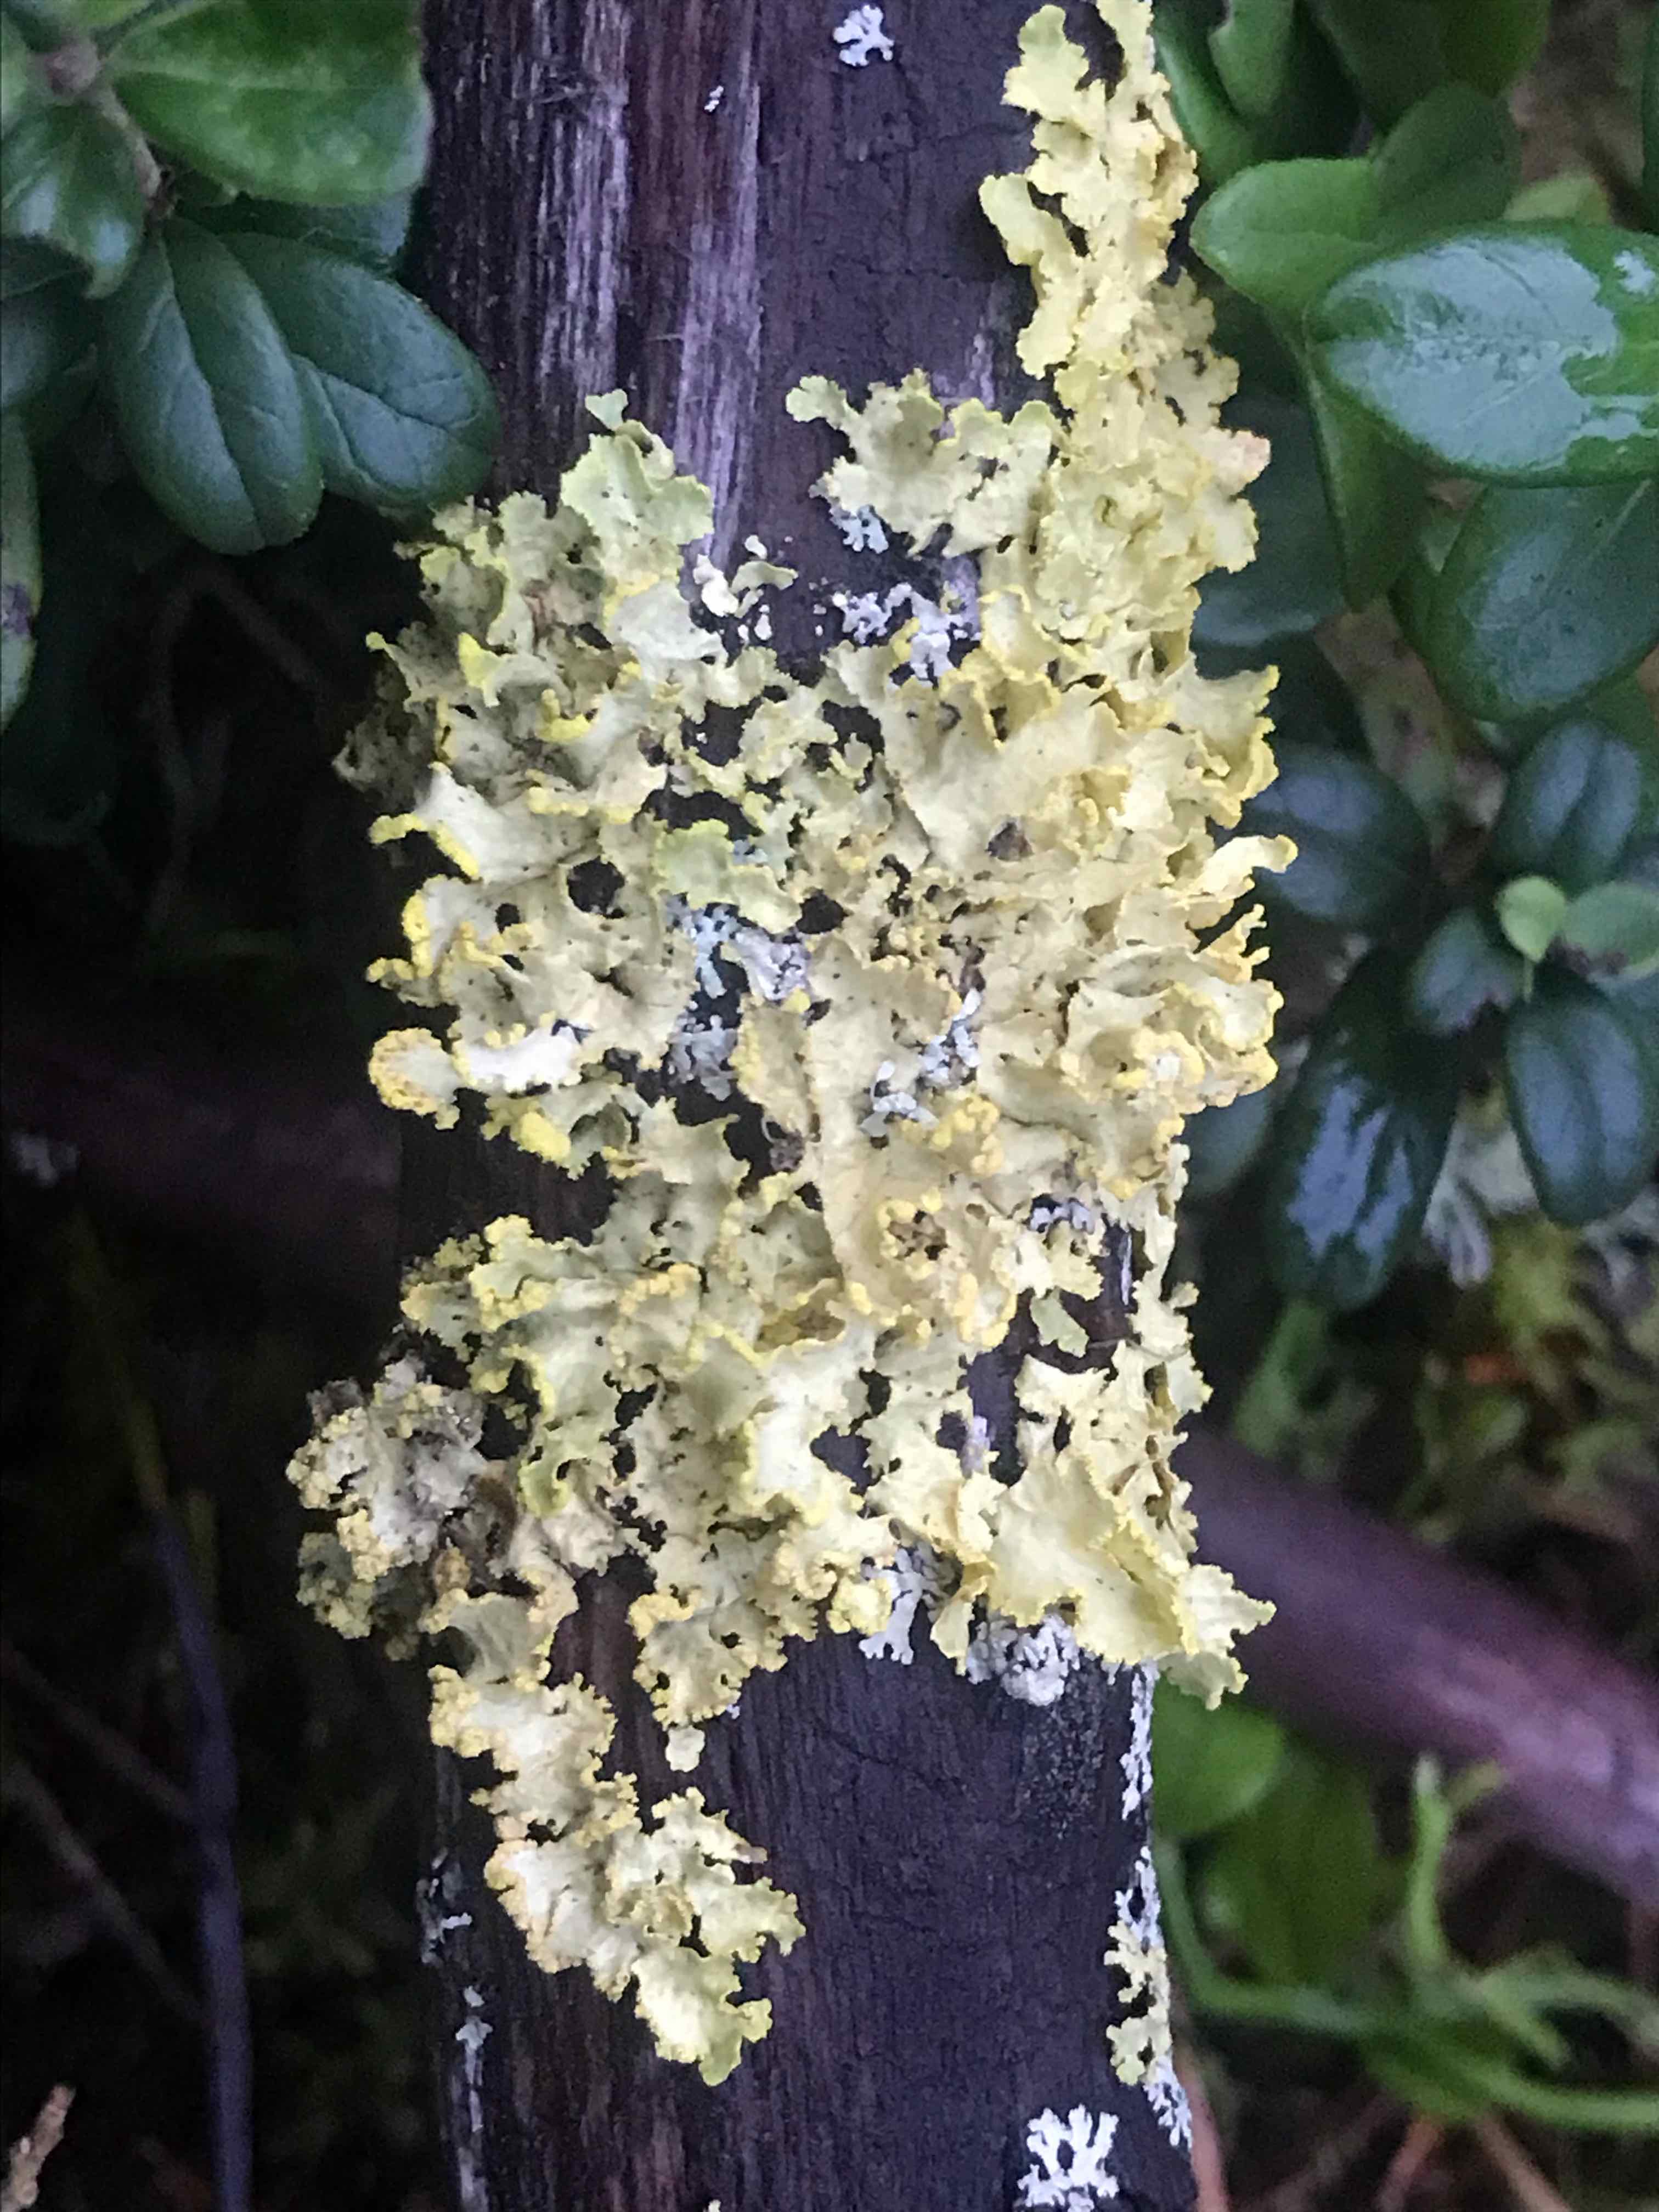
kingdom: Fungi
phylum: Ascomycota
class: Lecanoromycetes
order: Lecanorales
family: Parmeliaceae
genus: Vulpicida
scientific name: Vulpicida pinastri
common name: gul kruslav
